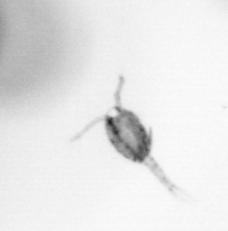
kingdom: Animalia
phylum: Arthropoda
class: Copepoda
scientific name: Copepoda
